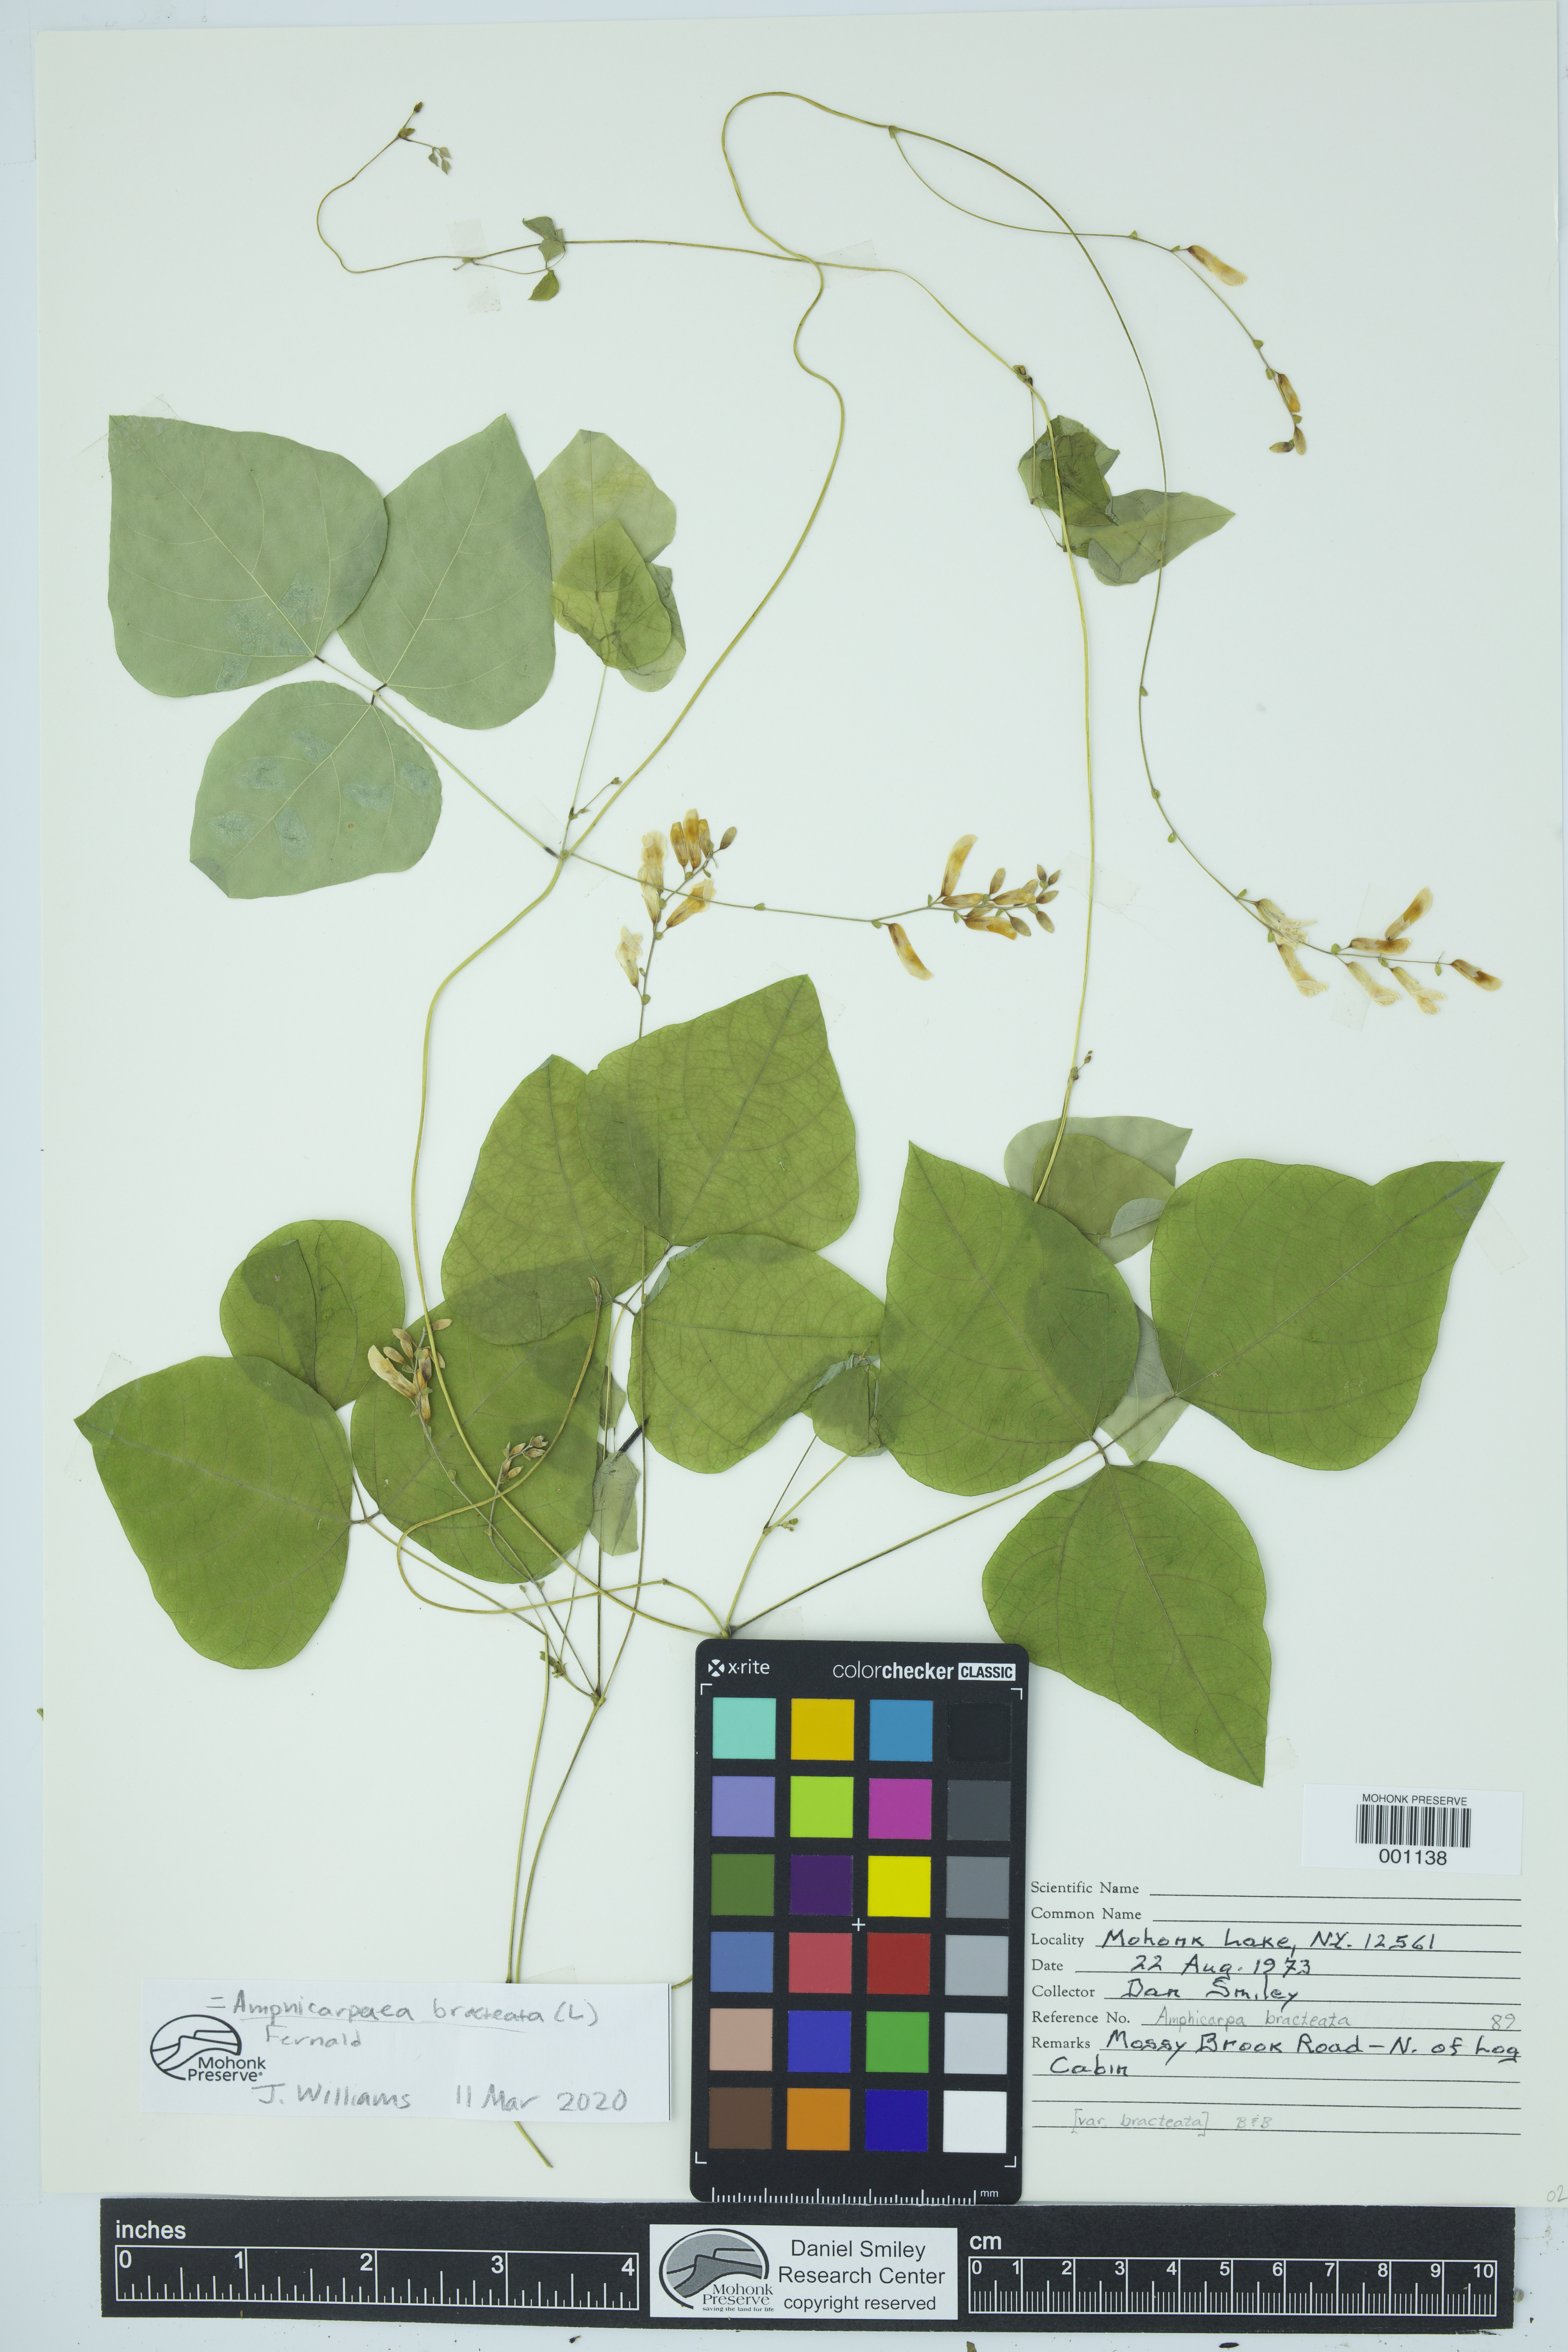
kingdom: Plantae
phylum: Tracheophyta
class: Magnoliopsida
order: Fabales
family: Fabaceae
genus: Amphicarpaea
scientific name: Amphicarpaea bracteata
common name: American hog peanut
